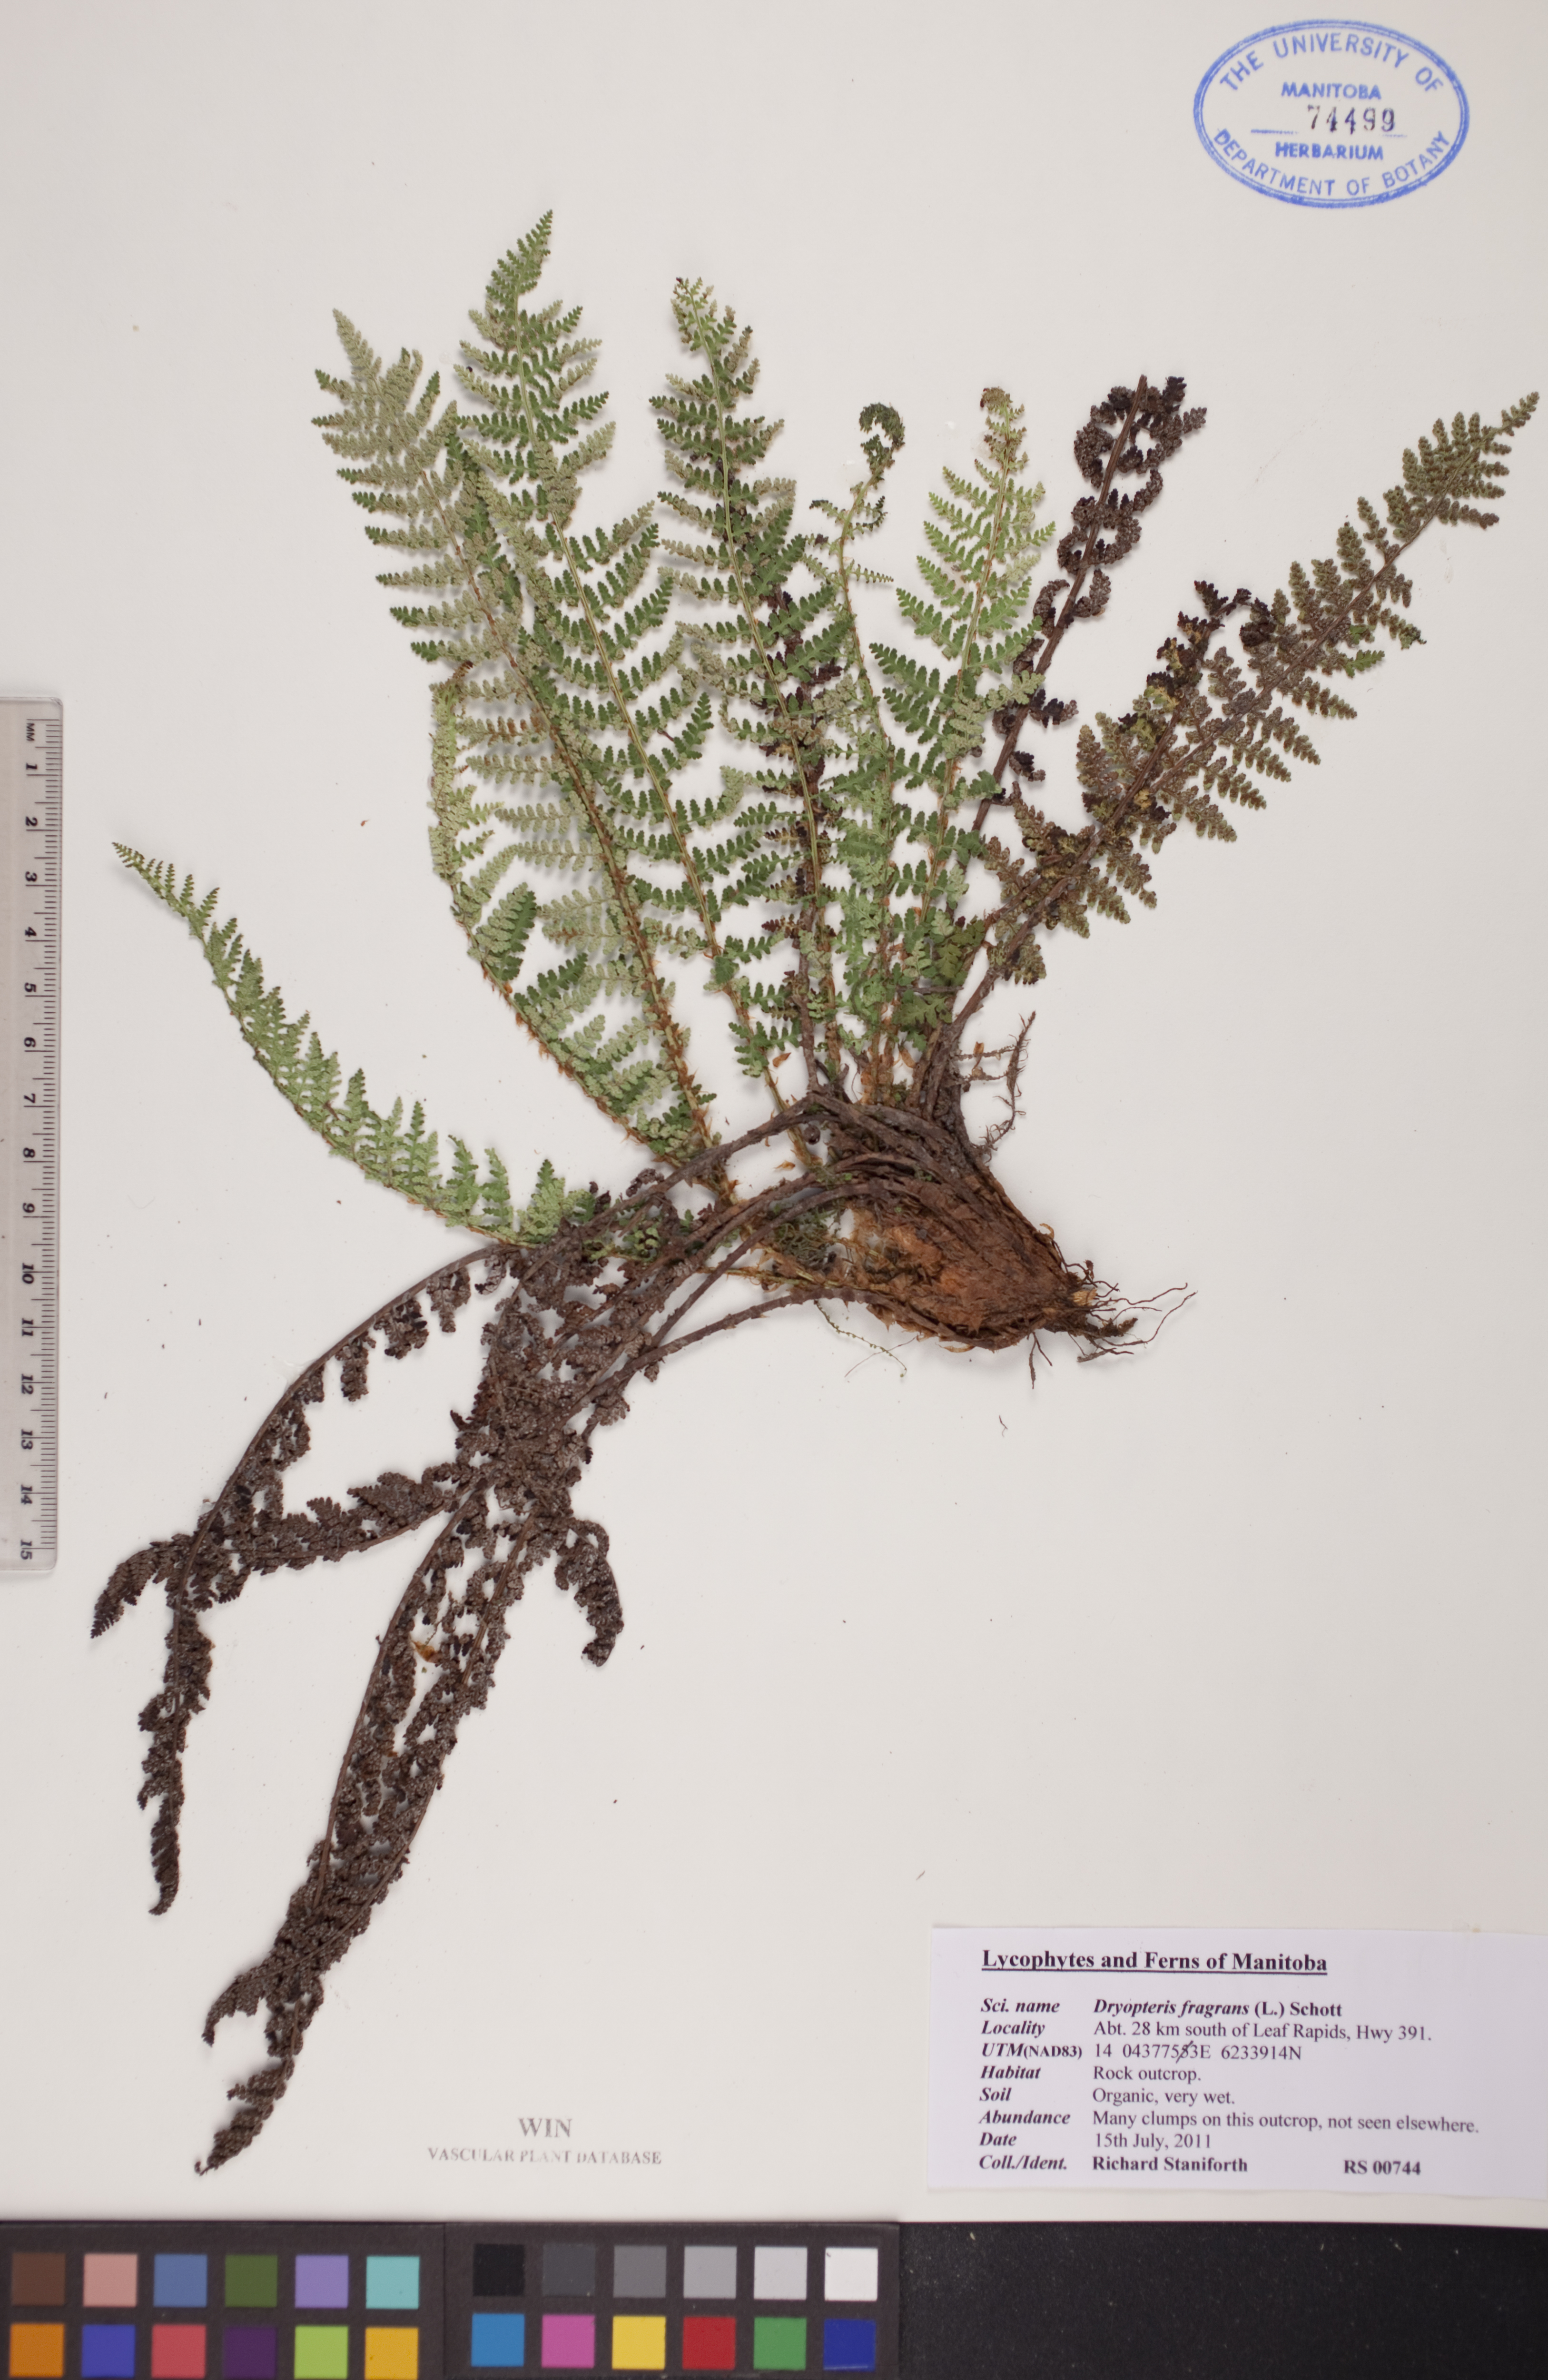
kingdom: Plantae
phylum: Tracheophyta
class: Polypodiopsida
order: Polypodiales
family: Dryopteridaceae
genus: Dryopteris
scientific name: Dryopteris fragrans
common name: Fragrant wood fern
